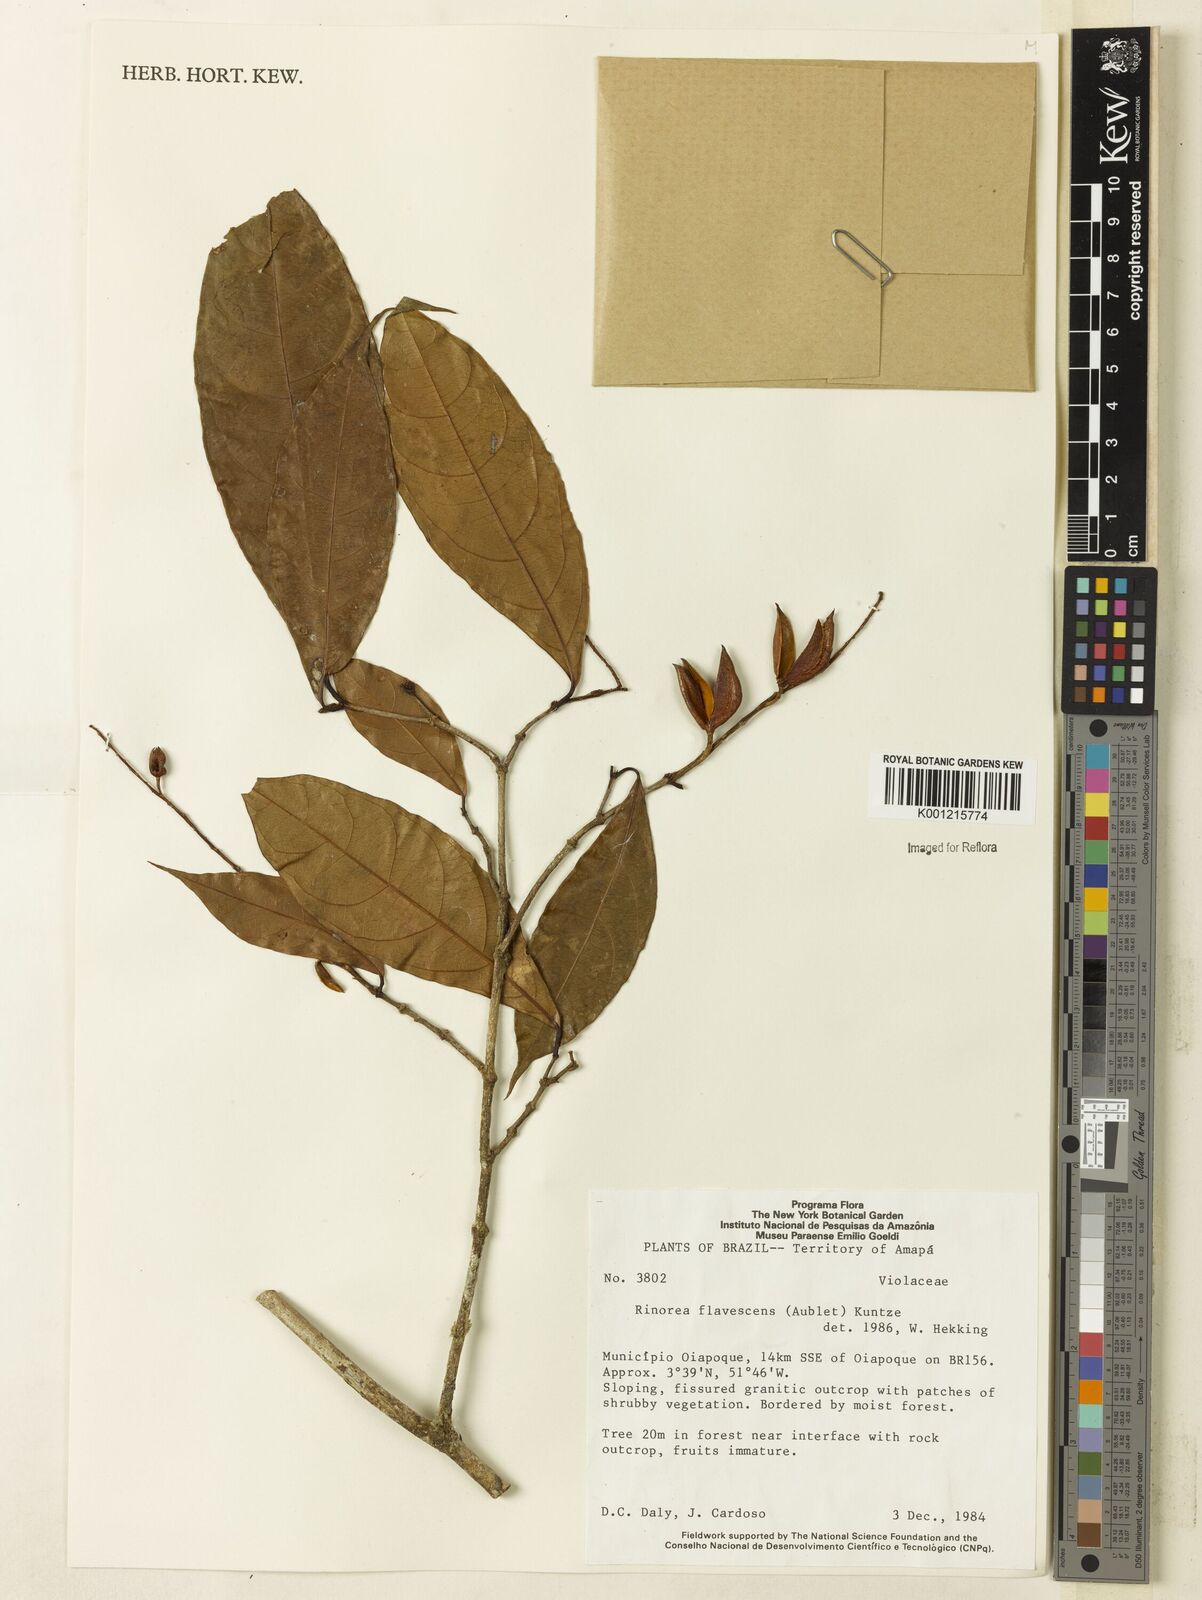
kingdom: Plantae
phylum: Tracheophyta
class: Magnoliopsida
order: Malpighiales
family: Violaceae
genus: Rinorea
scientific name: Rinorea flavescens
